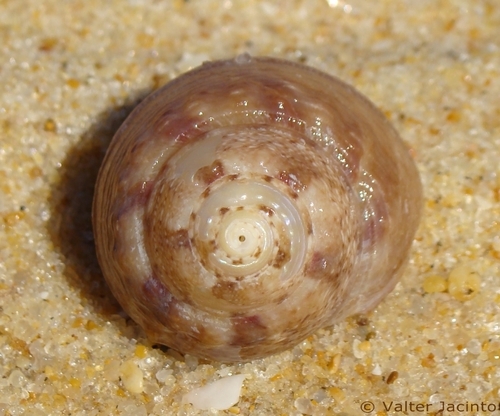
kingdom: Animalia
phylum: Mollusca
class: Gastropoda
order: Trochida
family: Trochidae
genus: Gibbula
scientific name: Gibbula magus
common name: Turban top shell
